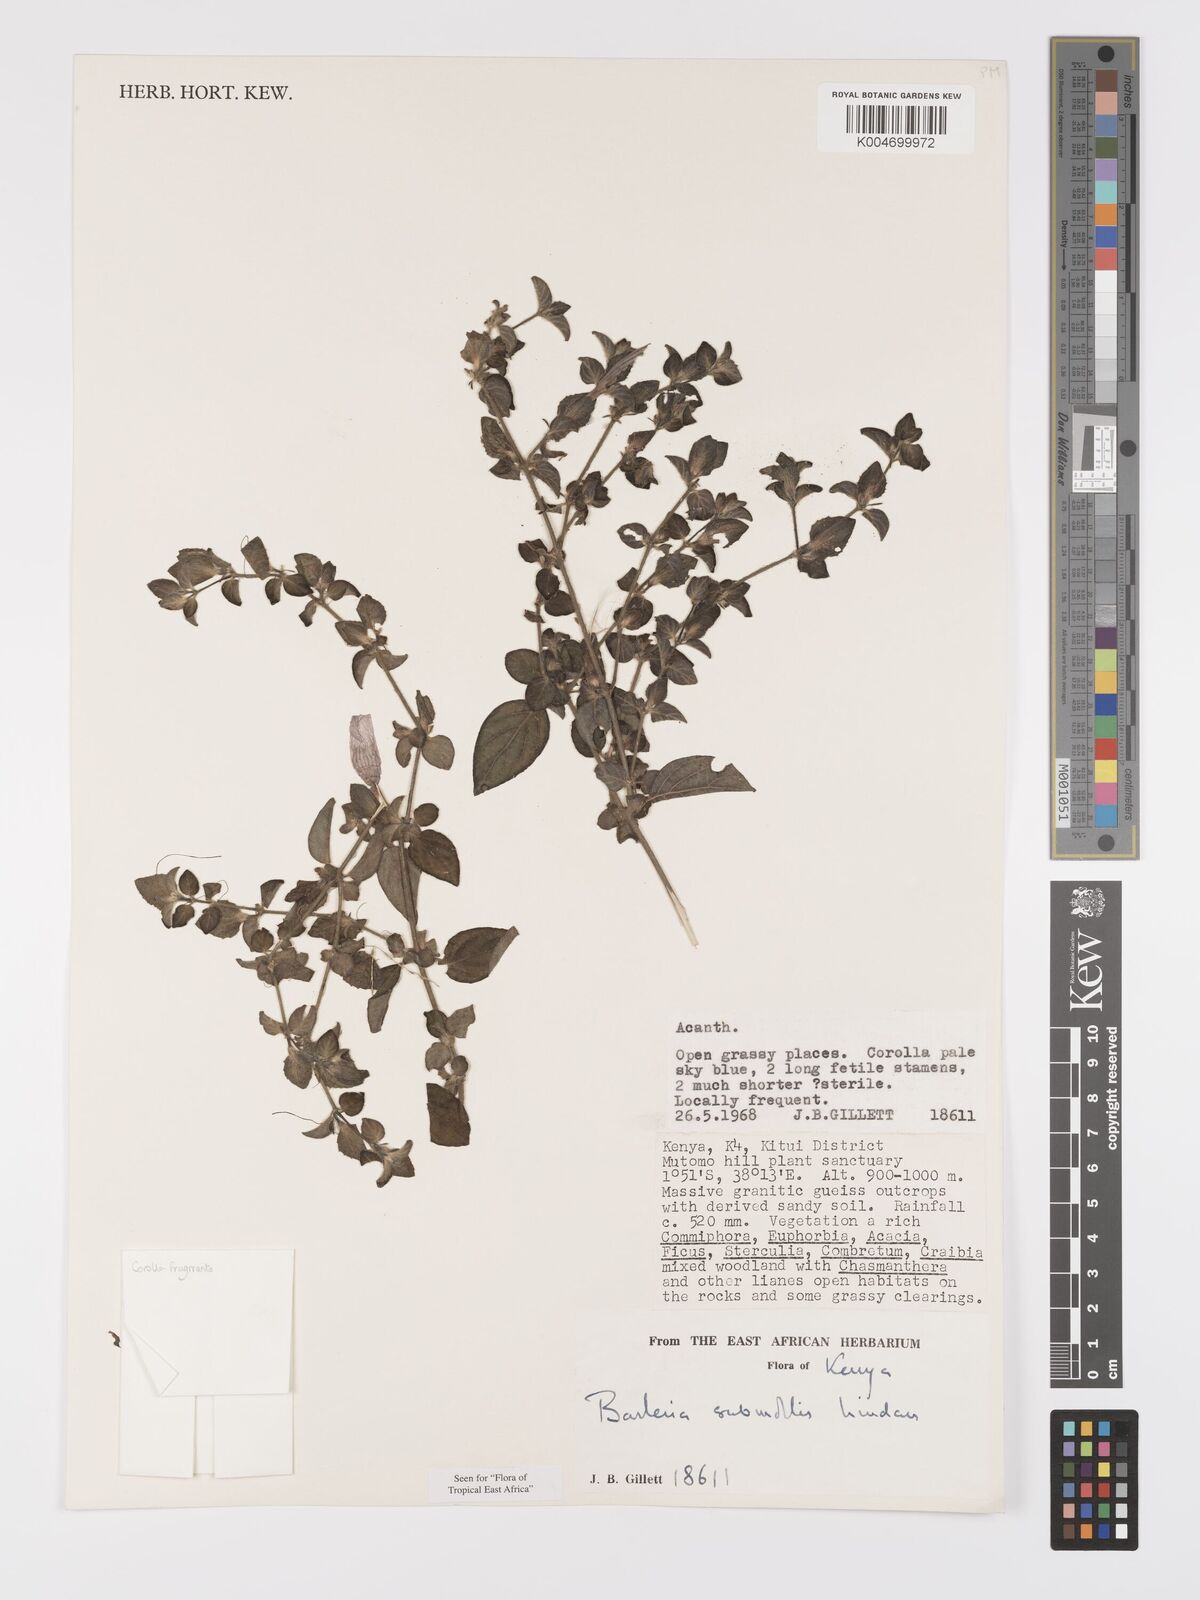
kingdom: Plantae
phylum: Tracheophyta
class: Magnoliopsida
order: Lamiales
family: Acanthaceae
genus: Barleria
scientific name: Barleria submollis
